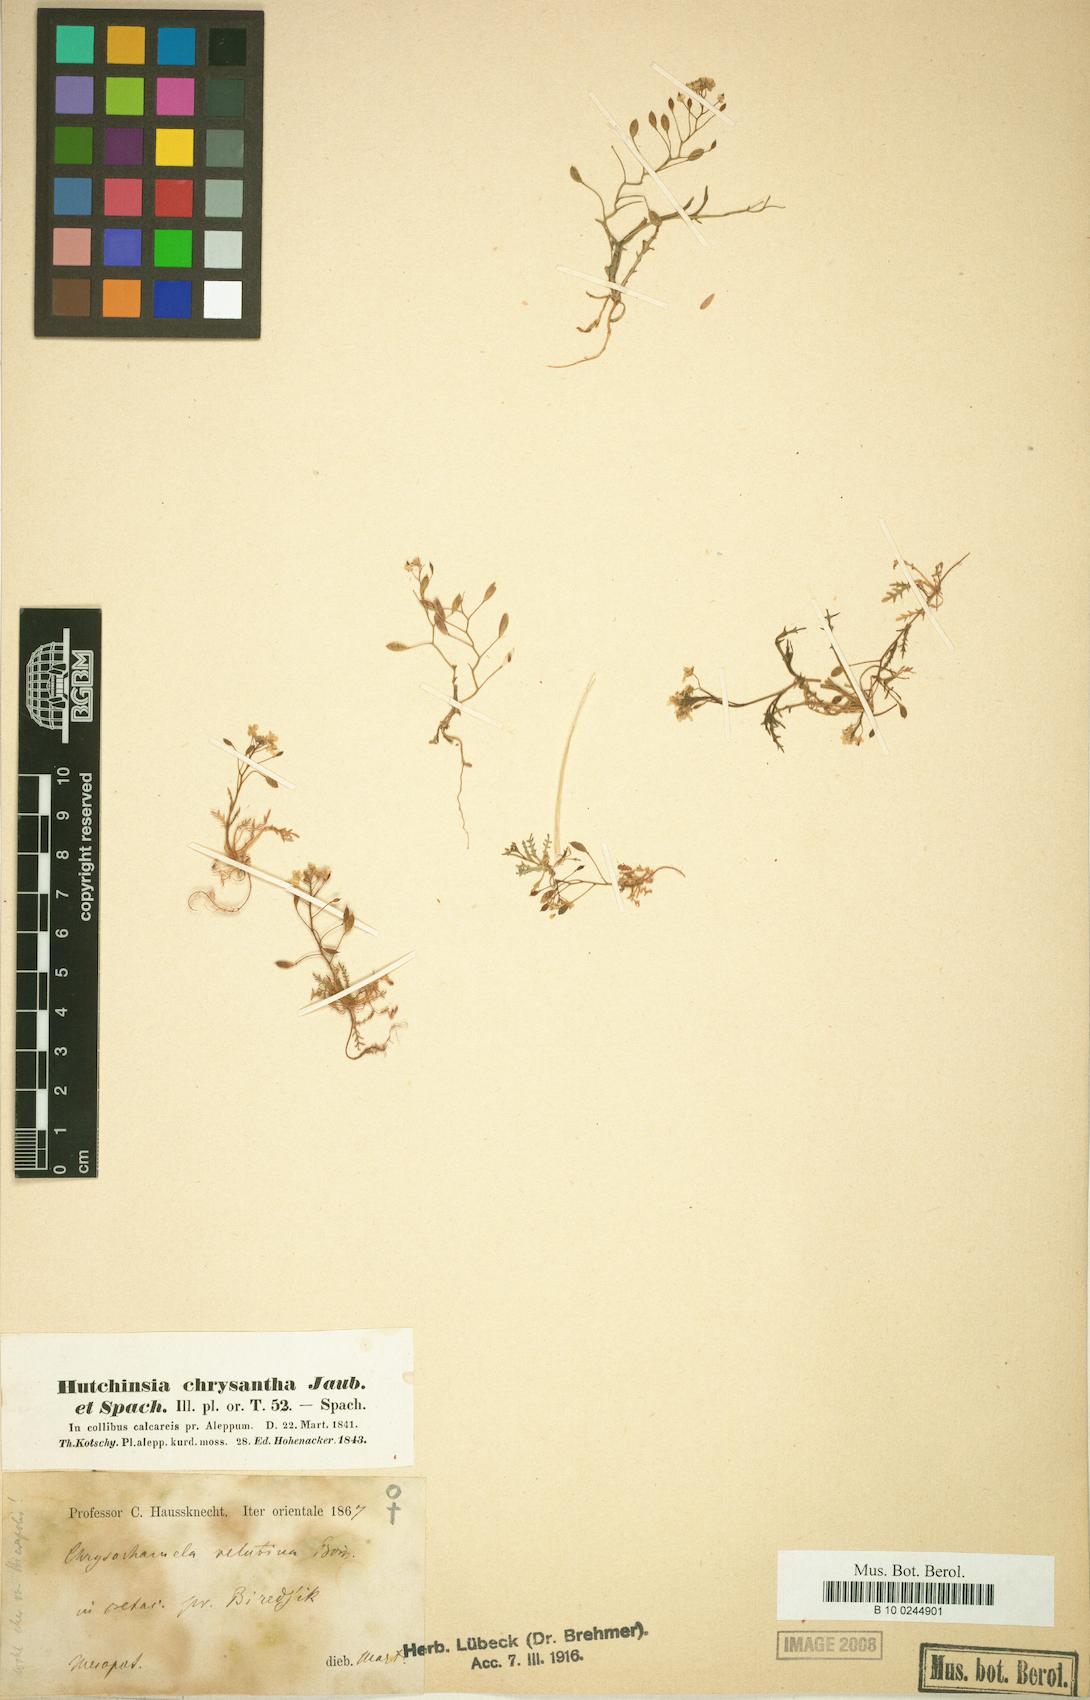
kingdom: Plantae
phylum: Tracheophyta
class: Magnoliopsida
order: Brassicales
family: Brassicaceae
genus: Chrysochamela
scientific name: Chrysochamela velutina
